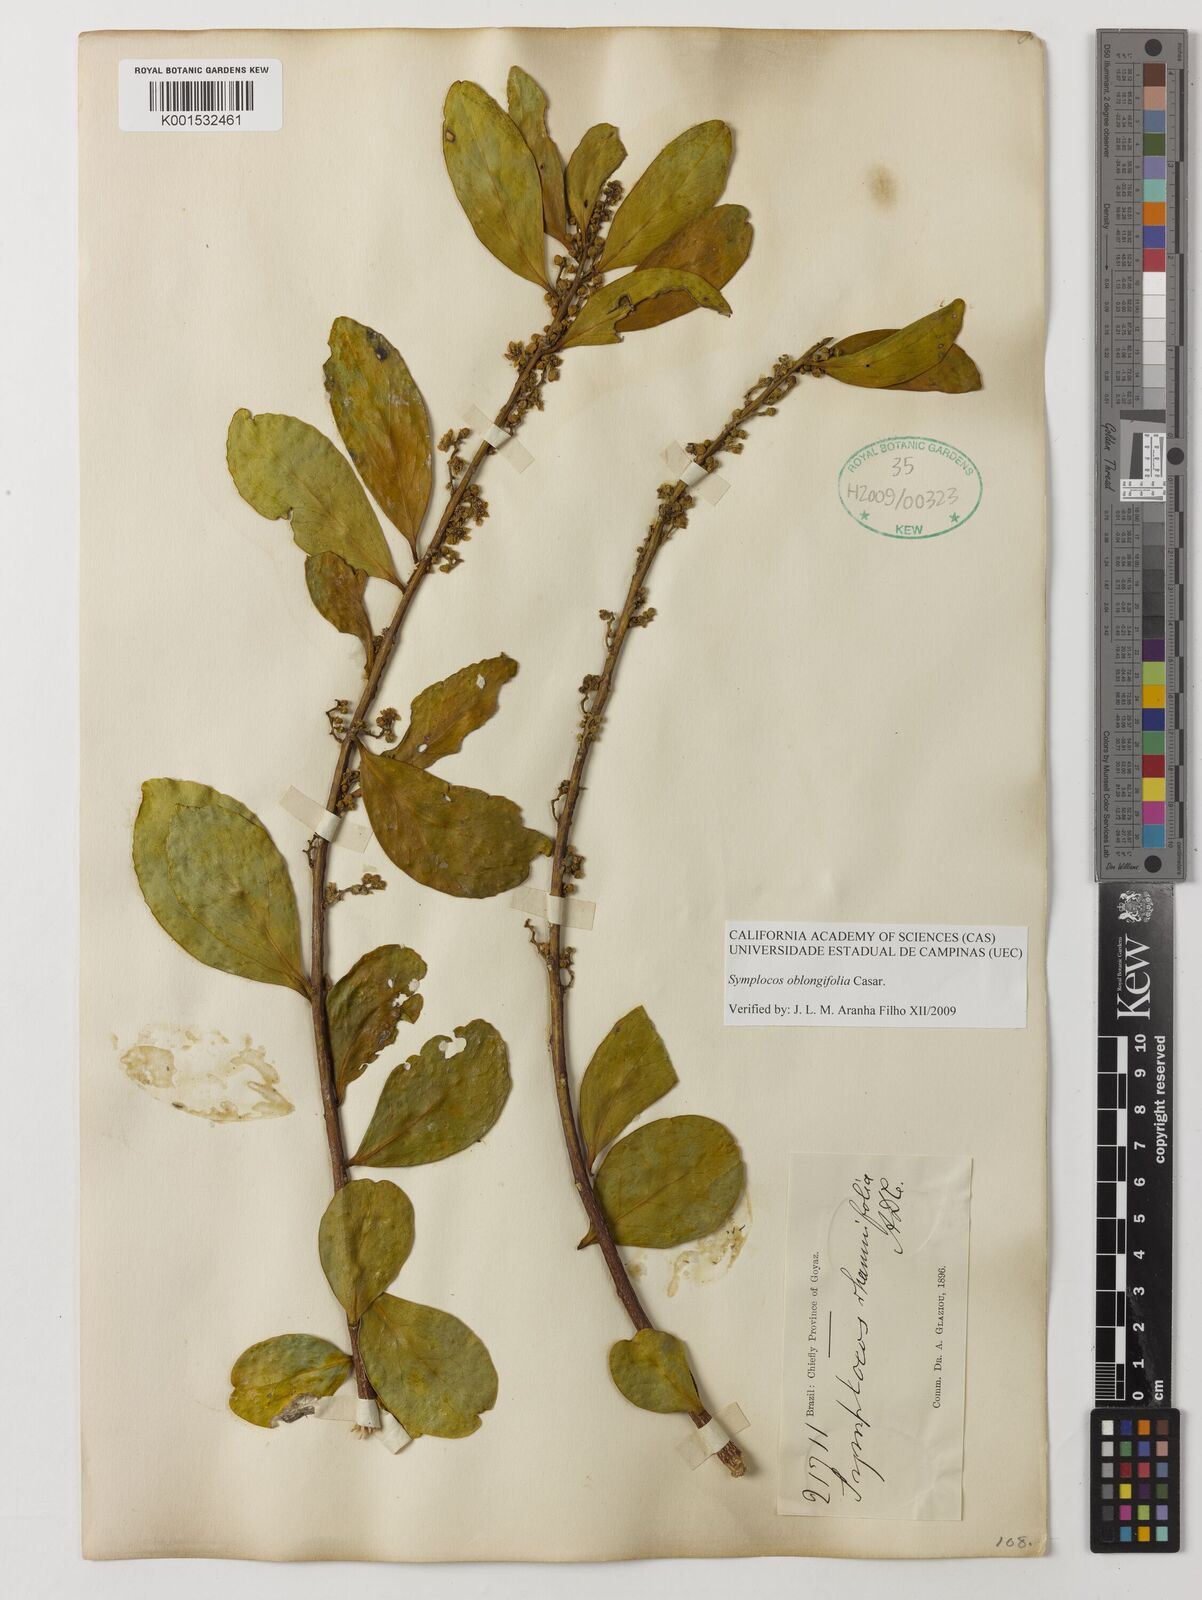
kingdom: Plantae
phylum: Tracheophyta
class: Magnoliopsida
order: Ericales
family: Symplocaceae
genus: Symplocos
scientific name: Symplocos oblongifolia
